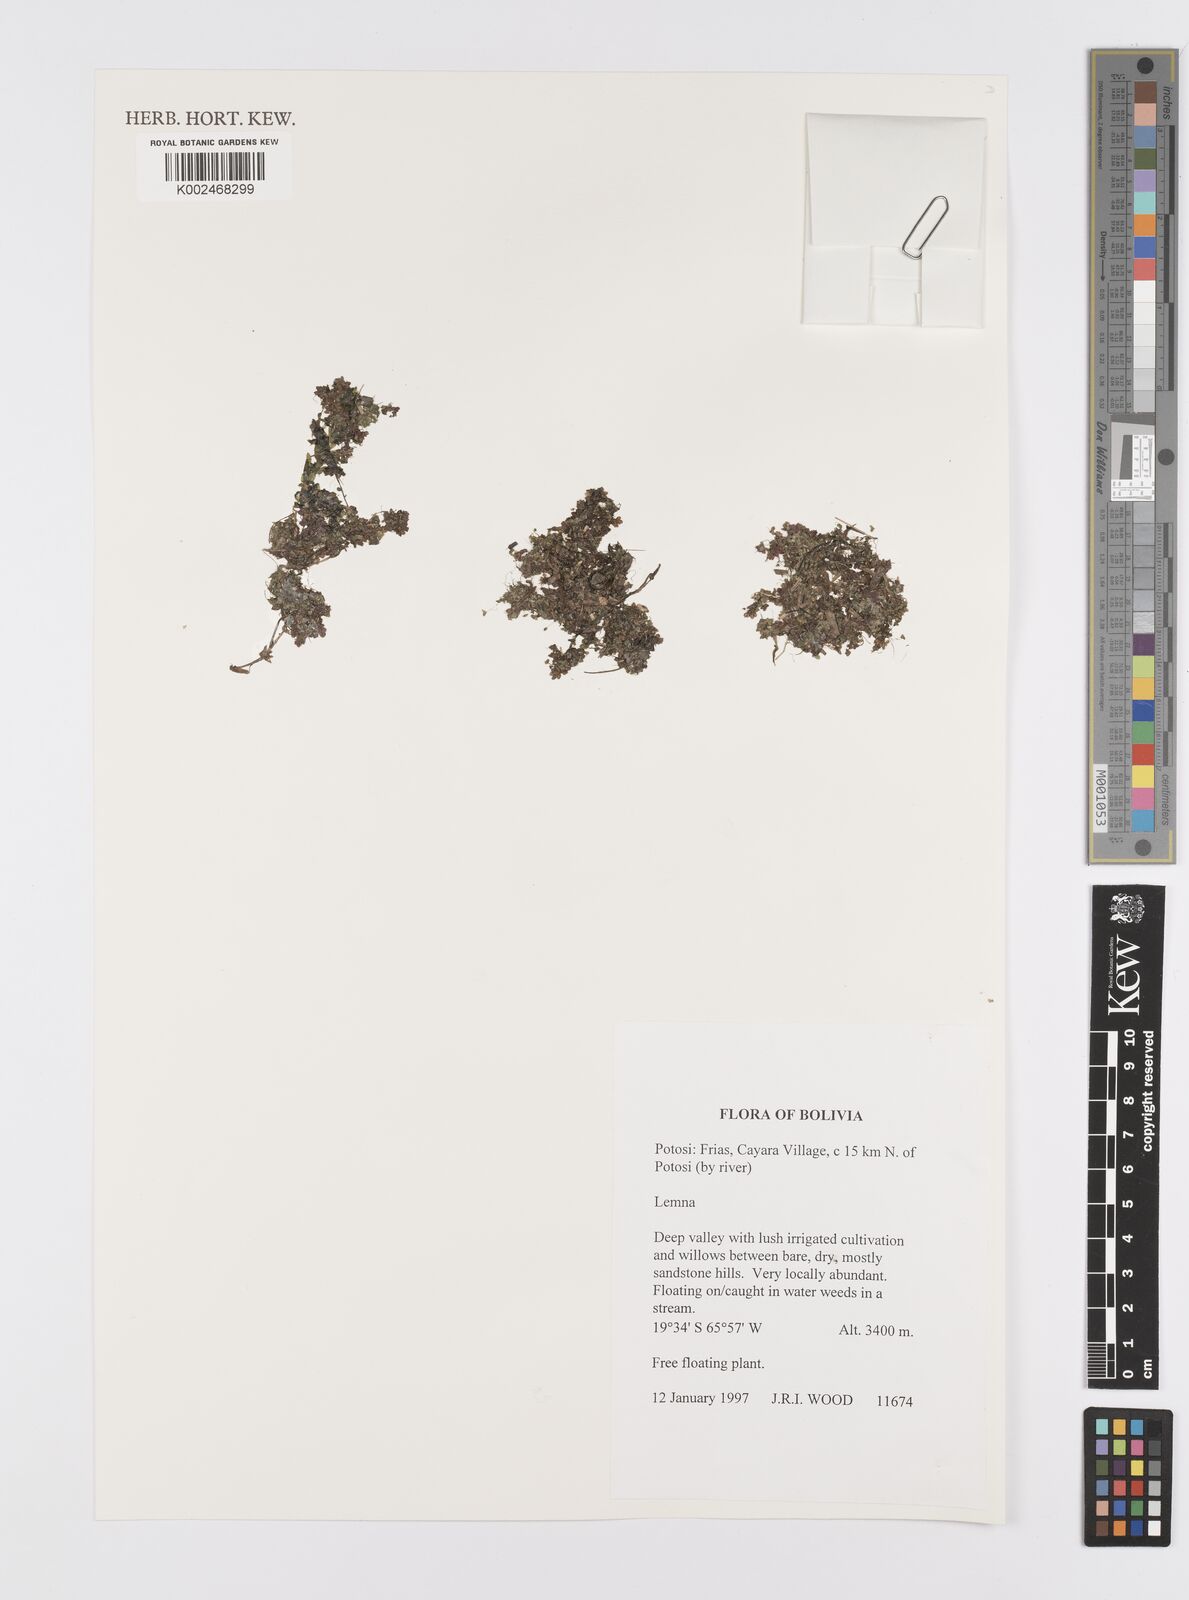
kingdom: Plantae
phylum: Tracheophyta
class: Liliopsida
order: Alismatales
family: Araceae
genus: Lemna
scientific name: Lemna
